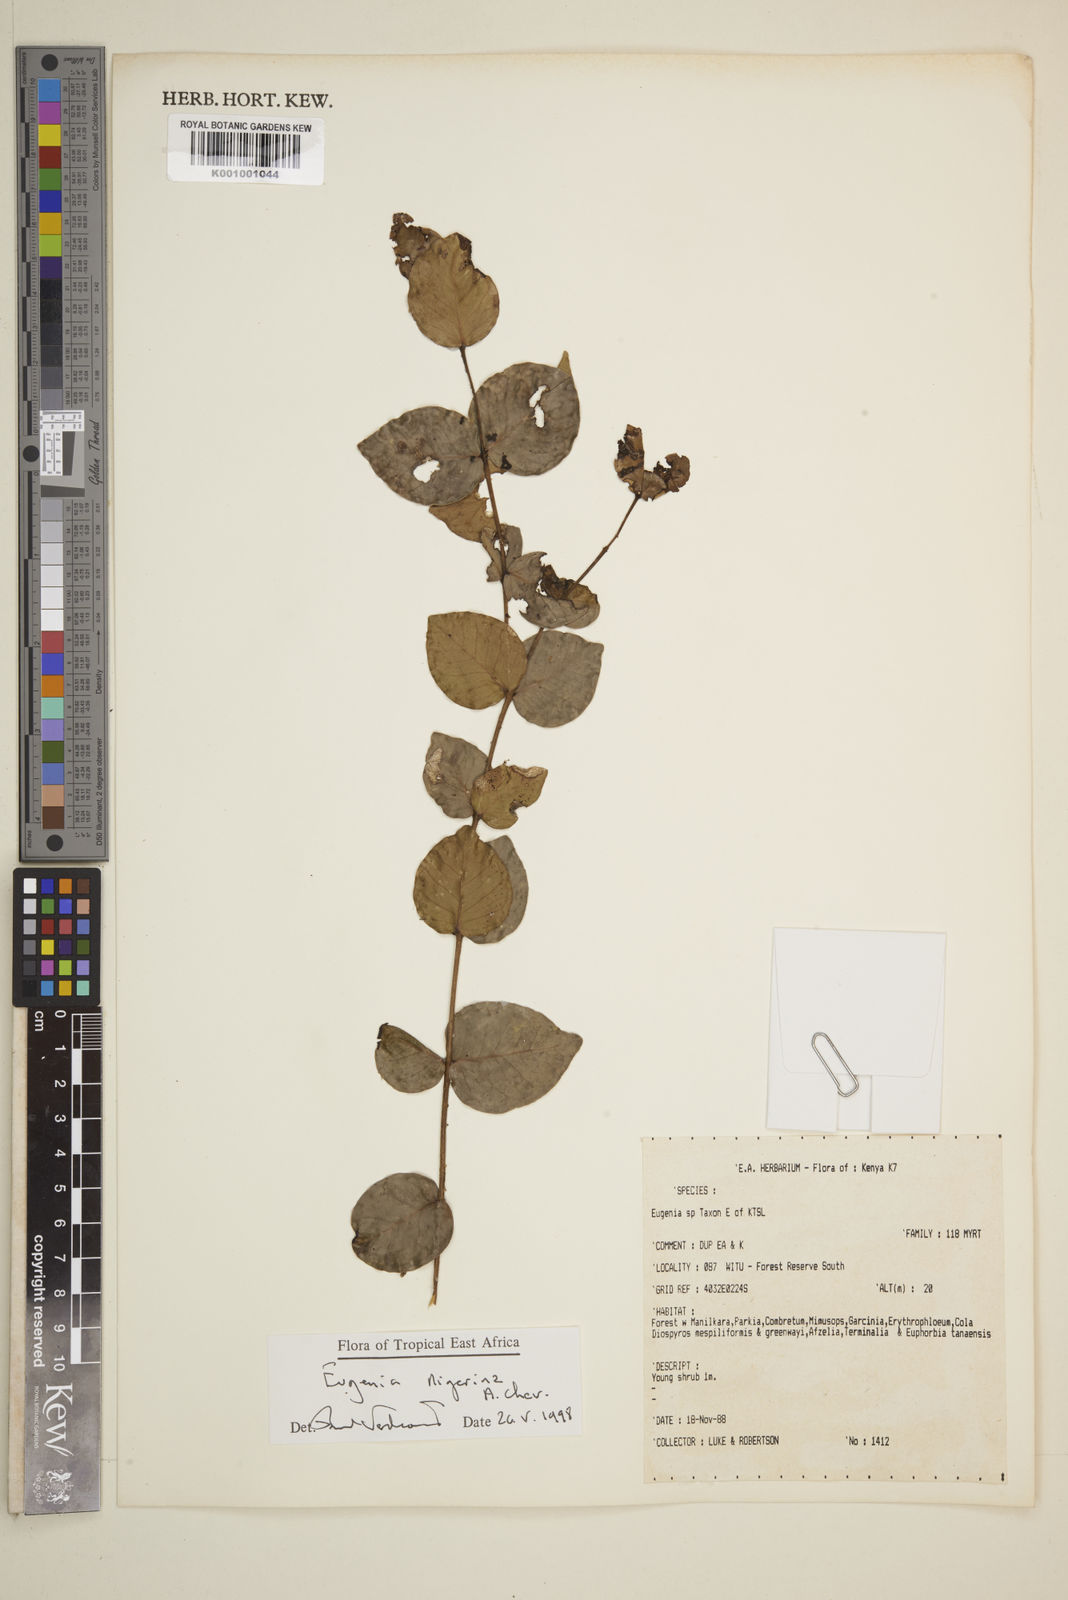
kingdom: Plantae
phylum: Tracheophyta
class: Magnoliopsida
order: Myrtales
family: Myrtaceae
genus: Eugenia
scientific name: Eugenia nigerina
